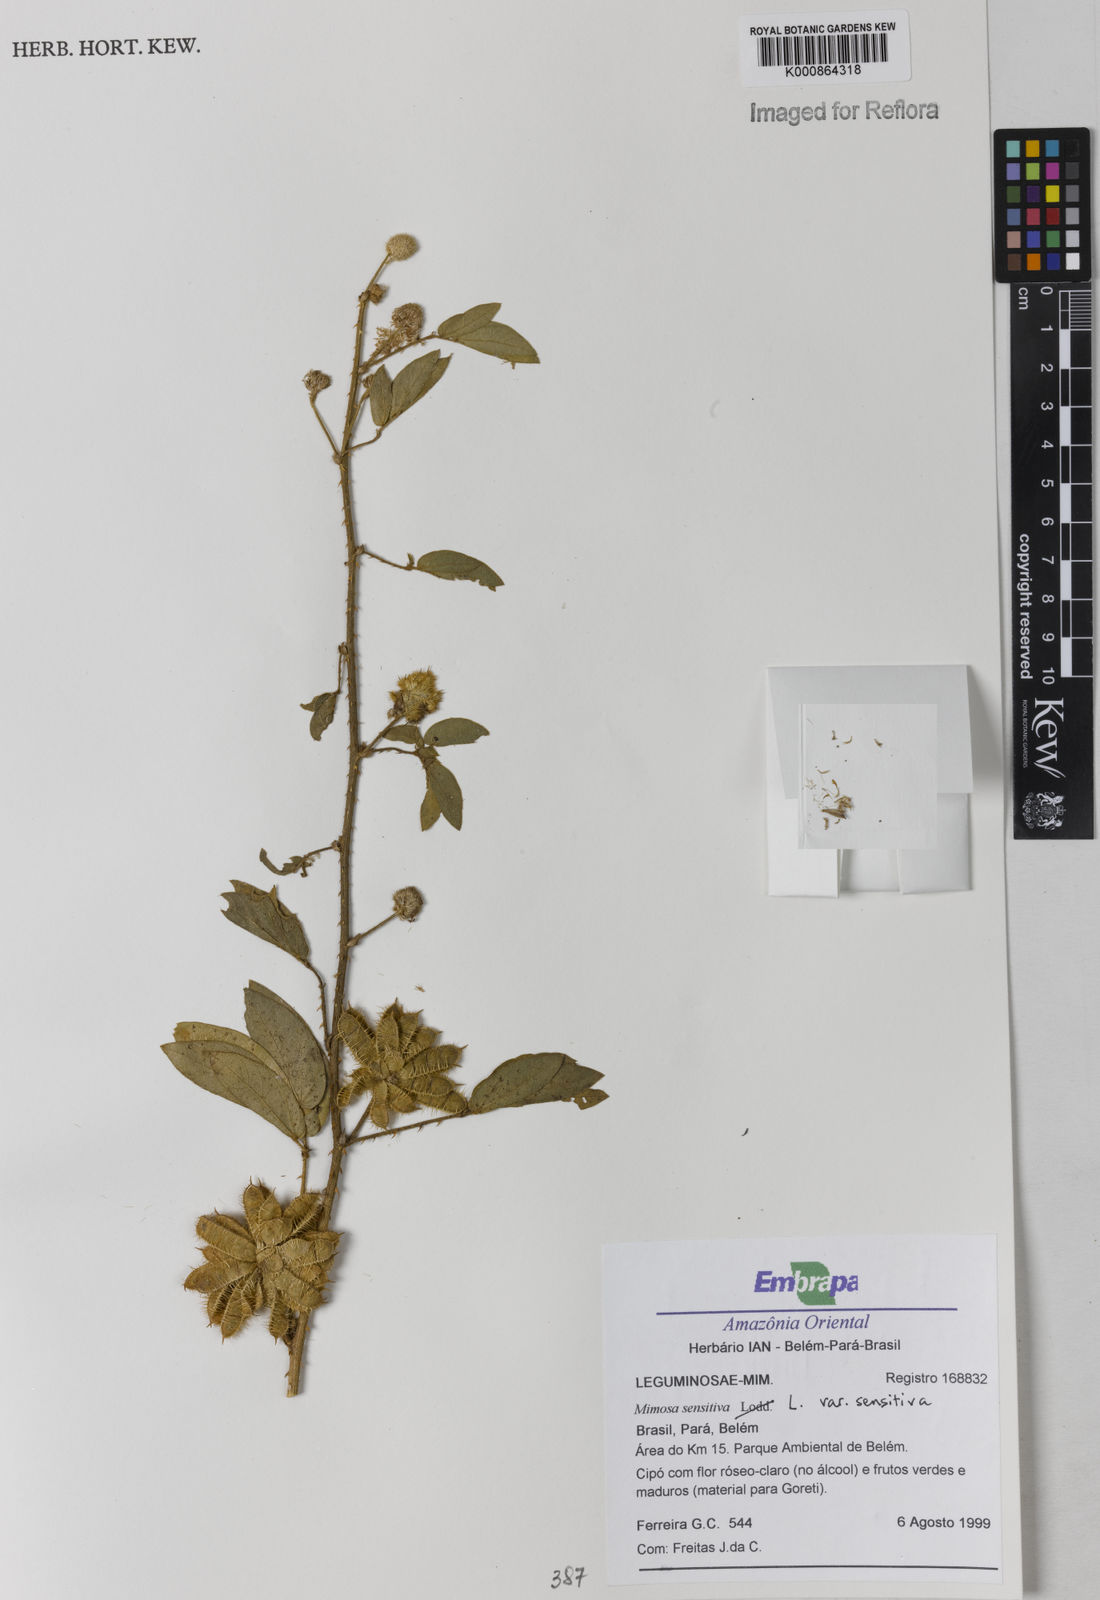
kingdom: Plantae
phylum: Tracheophyta
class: Magnoliopsida
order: Fabales
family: Fabaceae
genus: Mimosa
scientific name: Mimosa sensitiva
